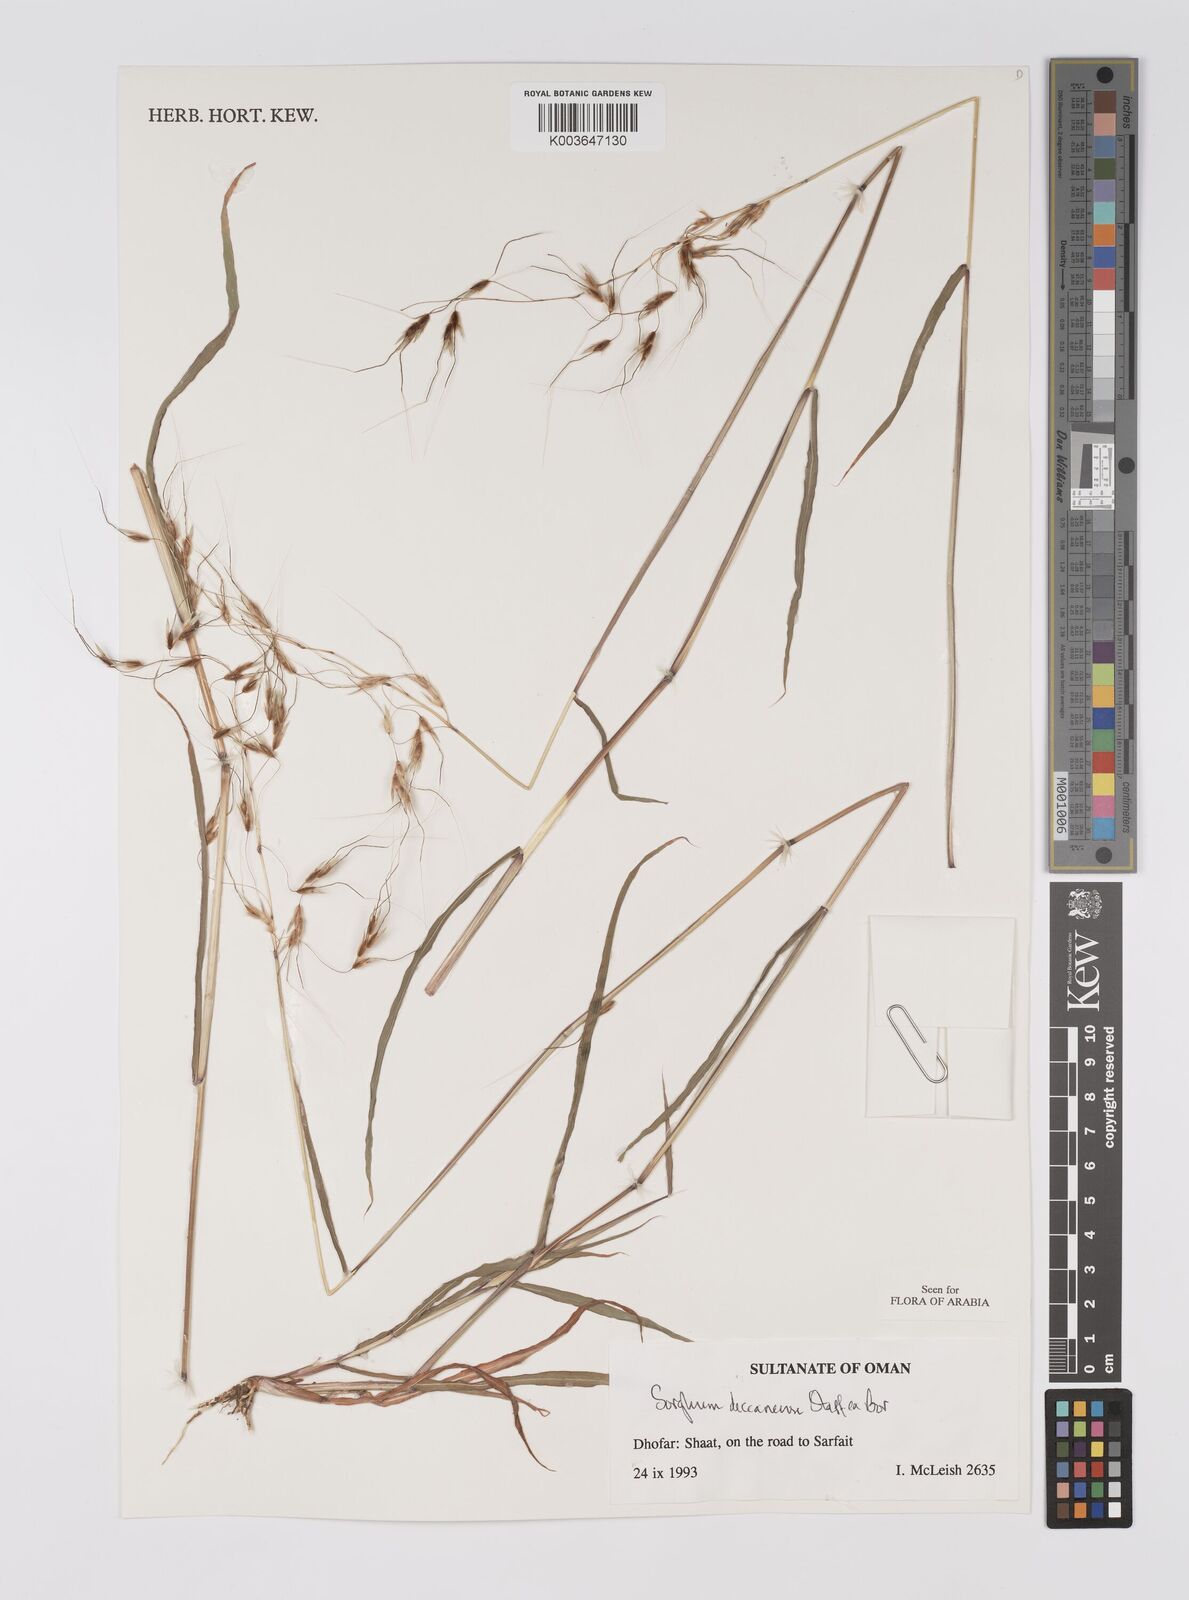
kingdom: Plantae
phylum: Tracheophyta
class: Liliopsida
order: Poales
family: Poaceae
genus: Sarga
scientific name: Sarga purpureosericea
